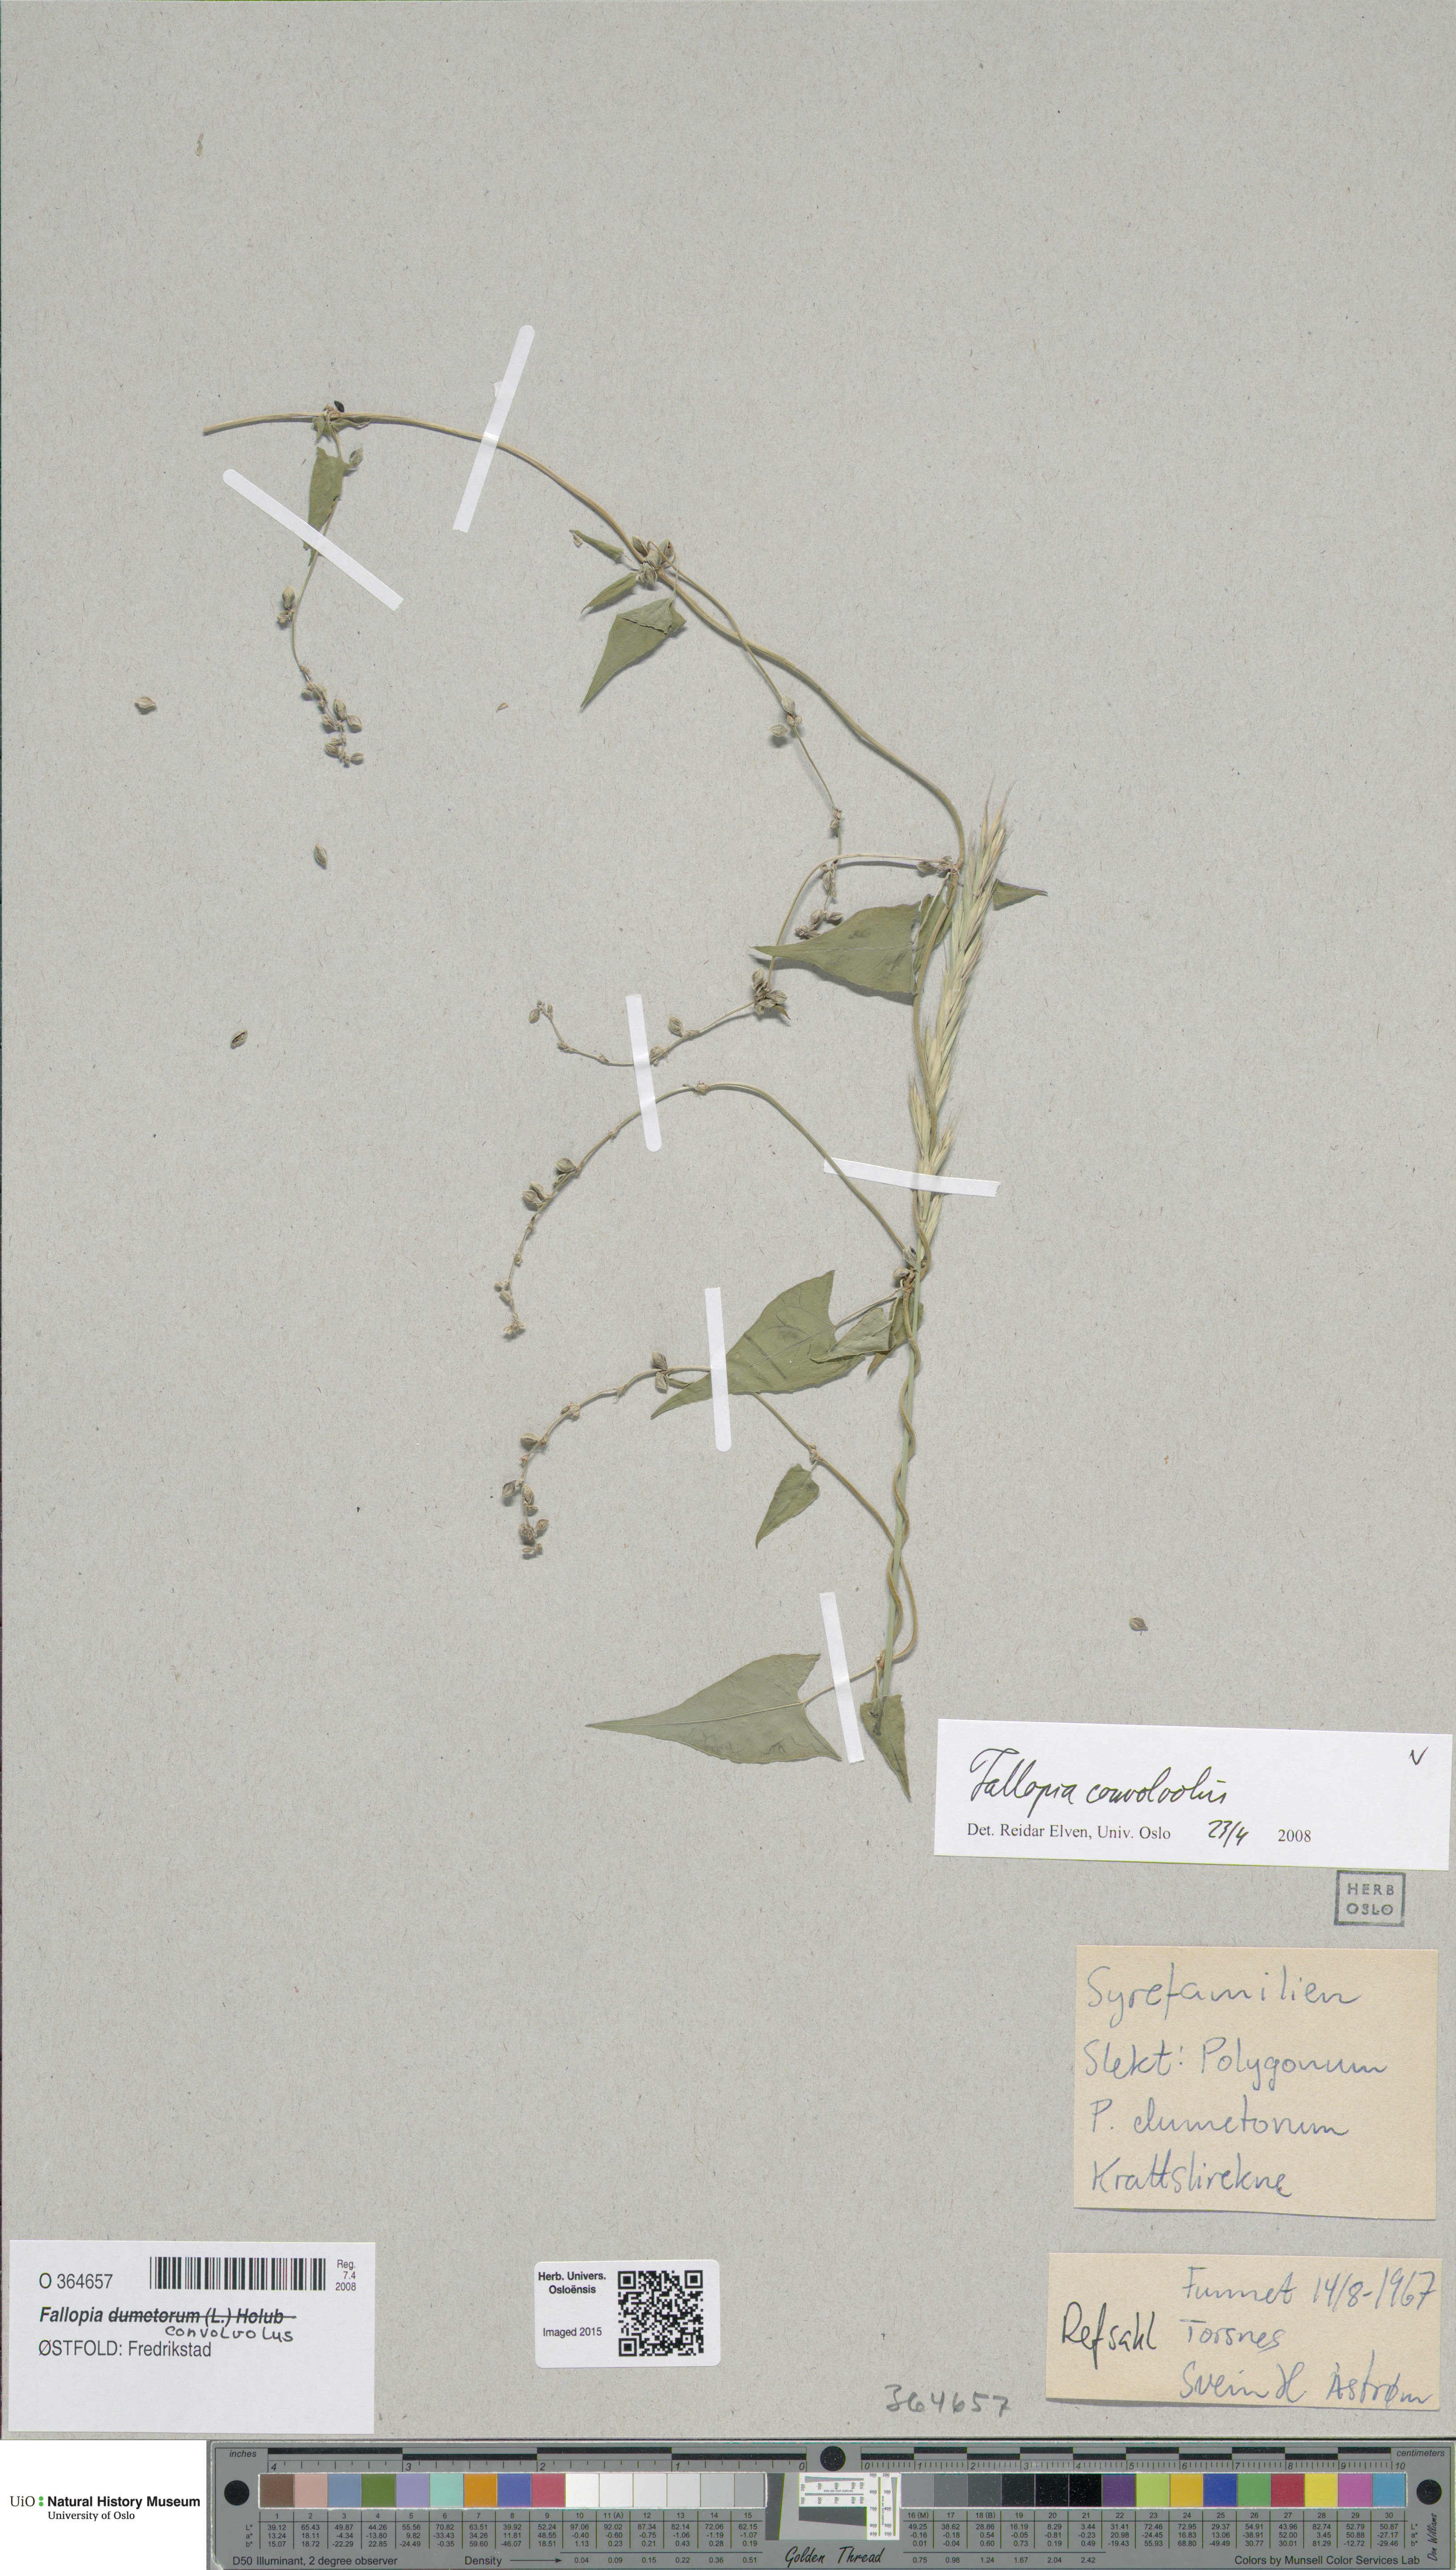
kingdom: Plantae
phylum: Tracheophyta
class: Magnoliopsida
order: Caryophyllales
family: Polygonaceae
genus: Fallopia
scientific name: Fallopia convolvulus
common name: Black bindweed
